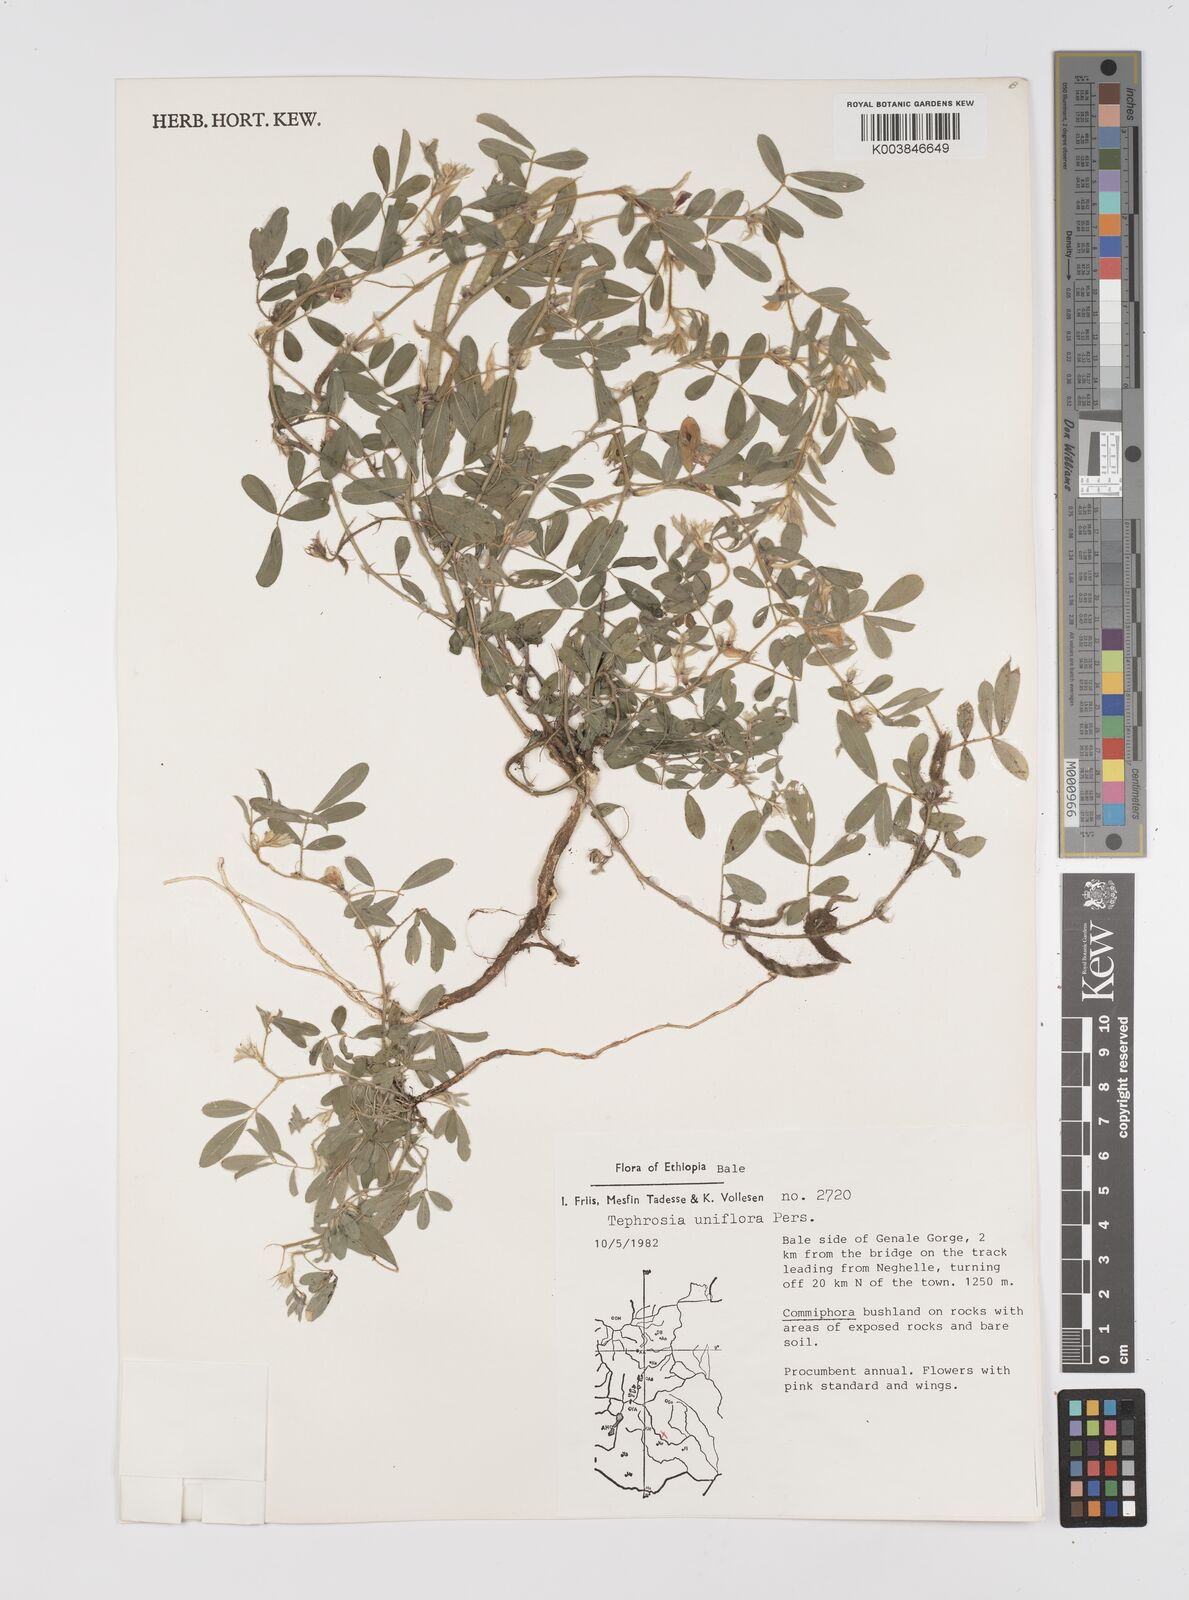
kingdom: Plantae
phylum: Tracheophyta
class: Magnoliopsida
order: Fabales
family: Fabaceae
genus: Tephrosia
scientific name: Tephrosia uniflora
